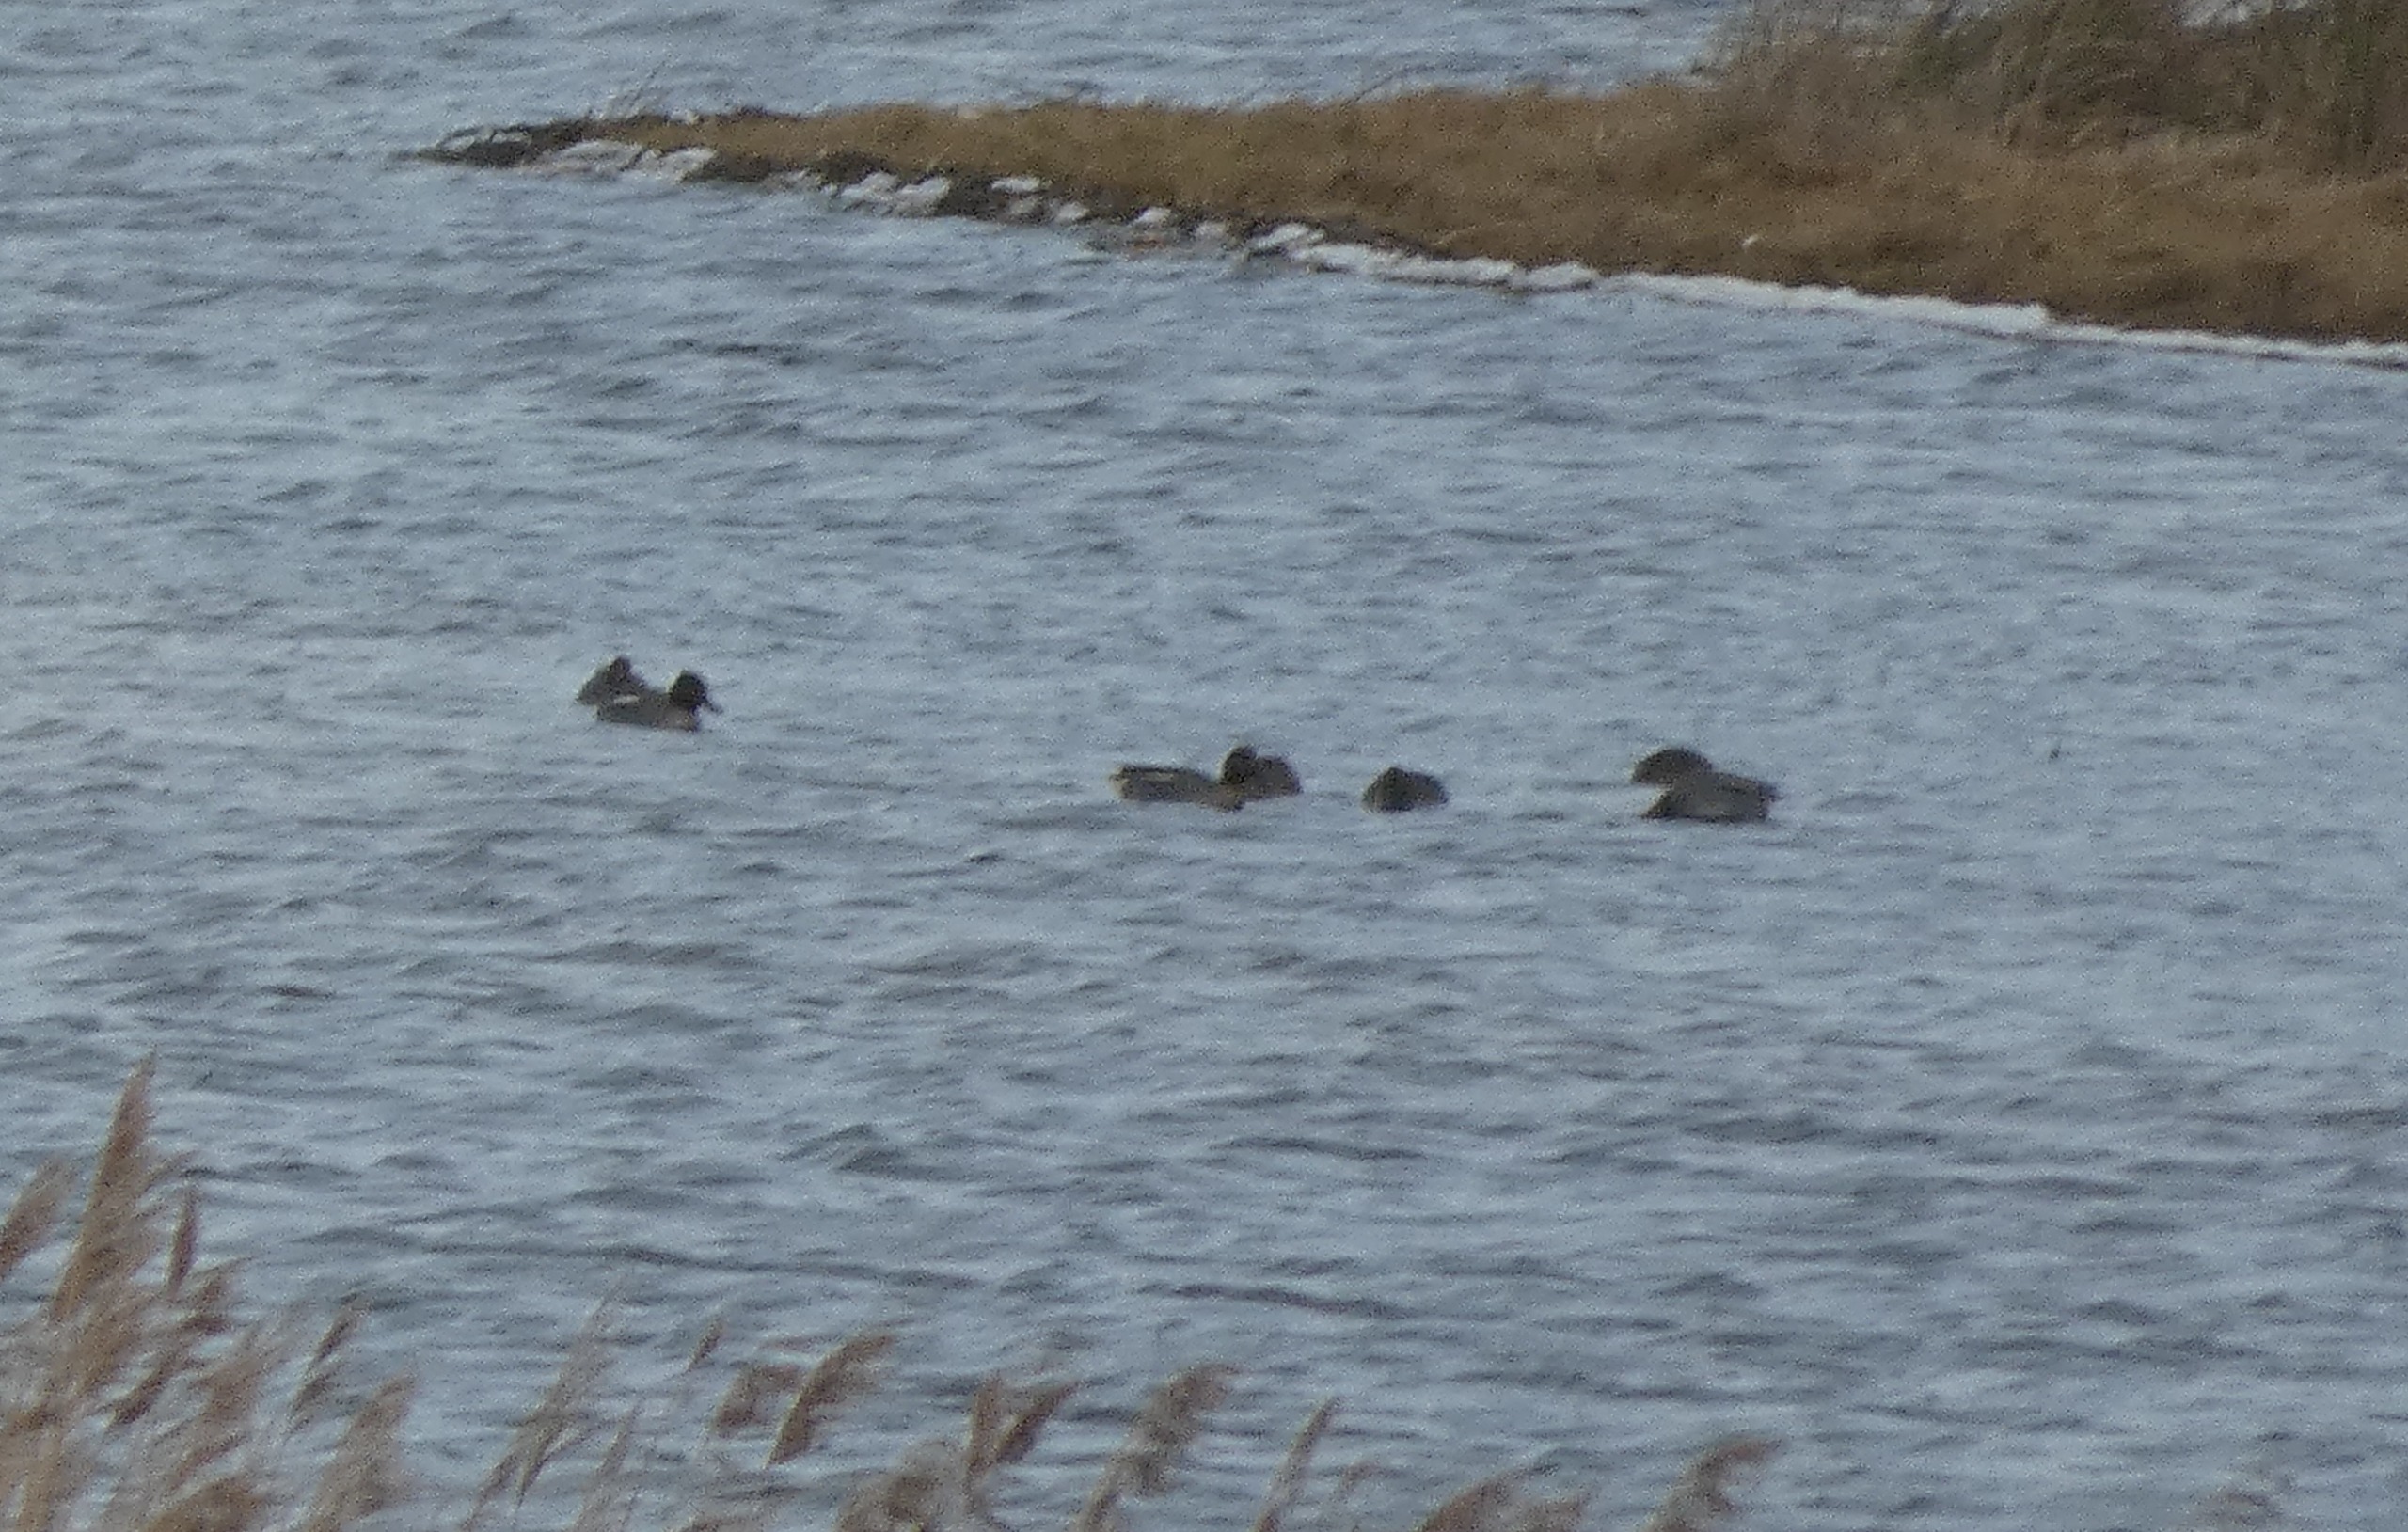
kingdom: Animalia
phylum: Chordata
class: Aves
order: Anseriformes
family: Anatidae
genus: Anas
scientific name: Anas crecca
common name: Krikand
